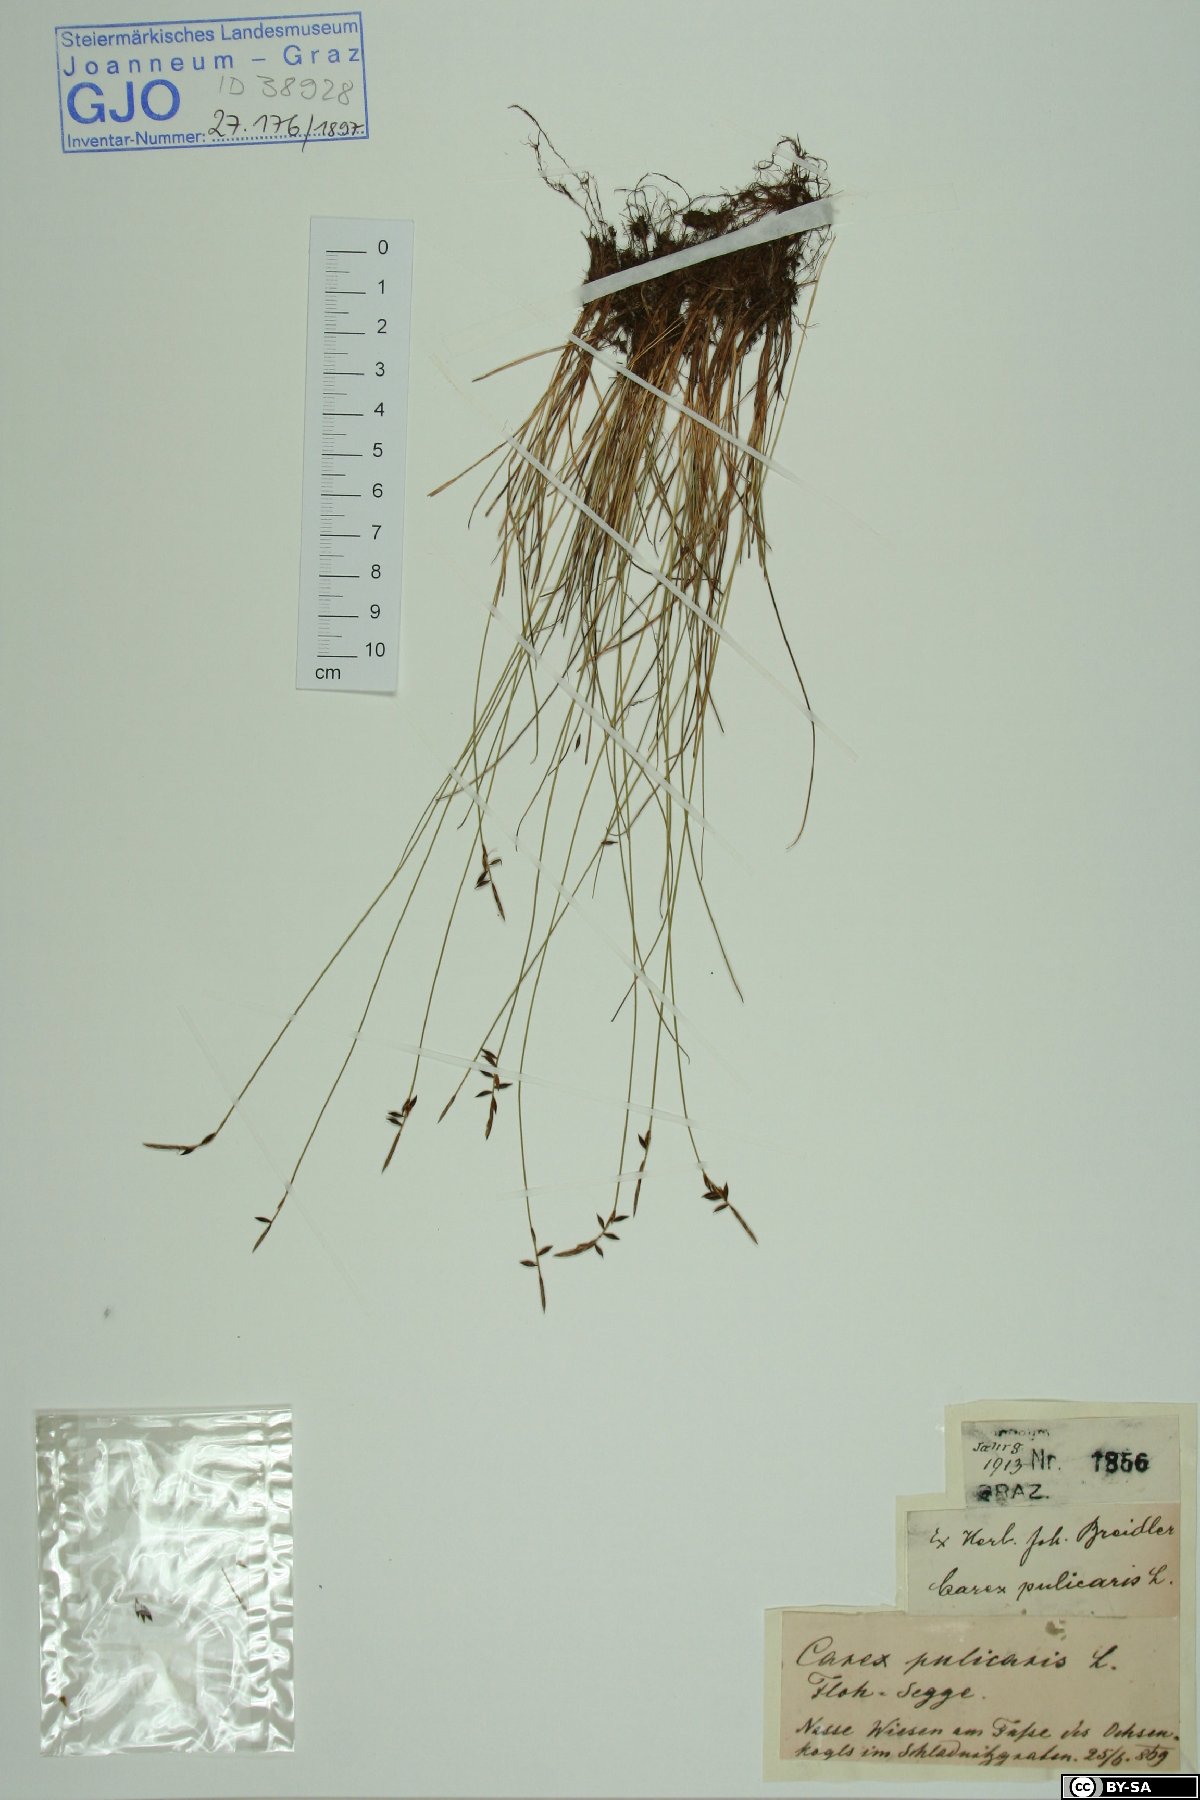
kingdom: Plantae
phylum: Tracheophyta
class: Liliopsida
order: Poales
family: Cyperaceae
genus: Carex
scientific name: Carex pulicaris
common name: Flea sedge
